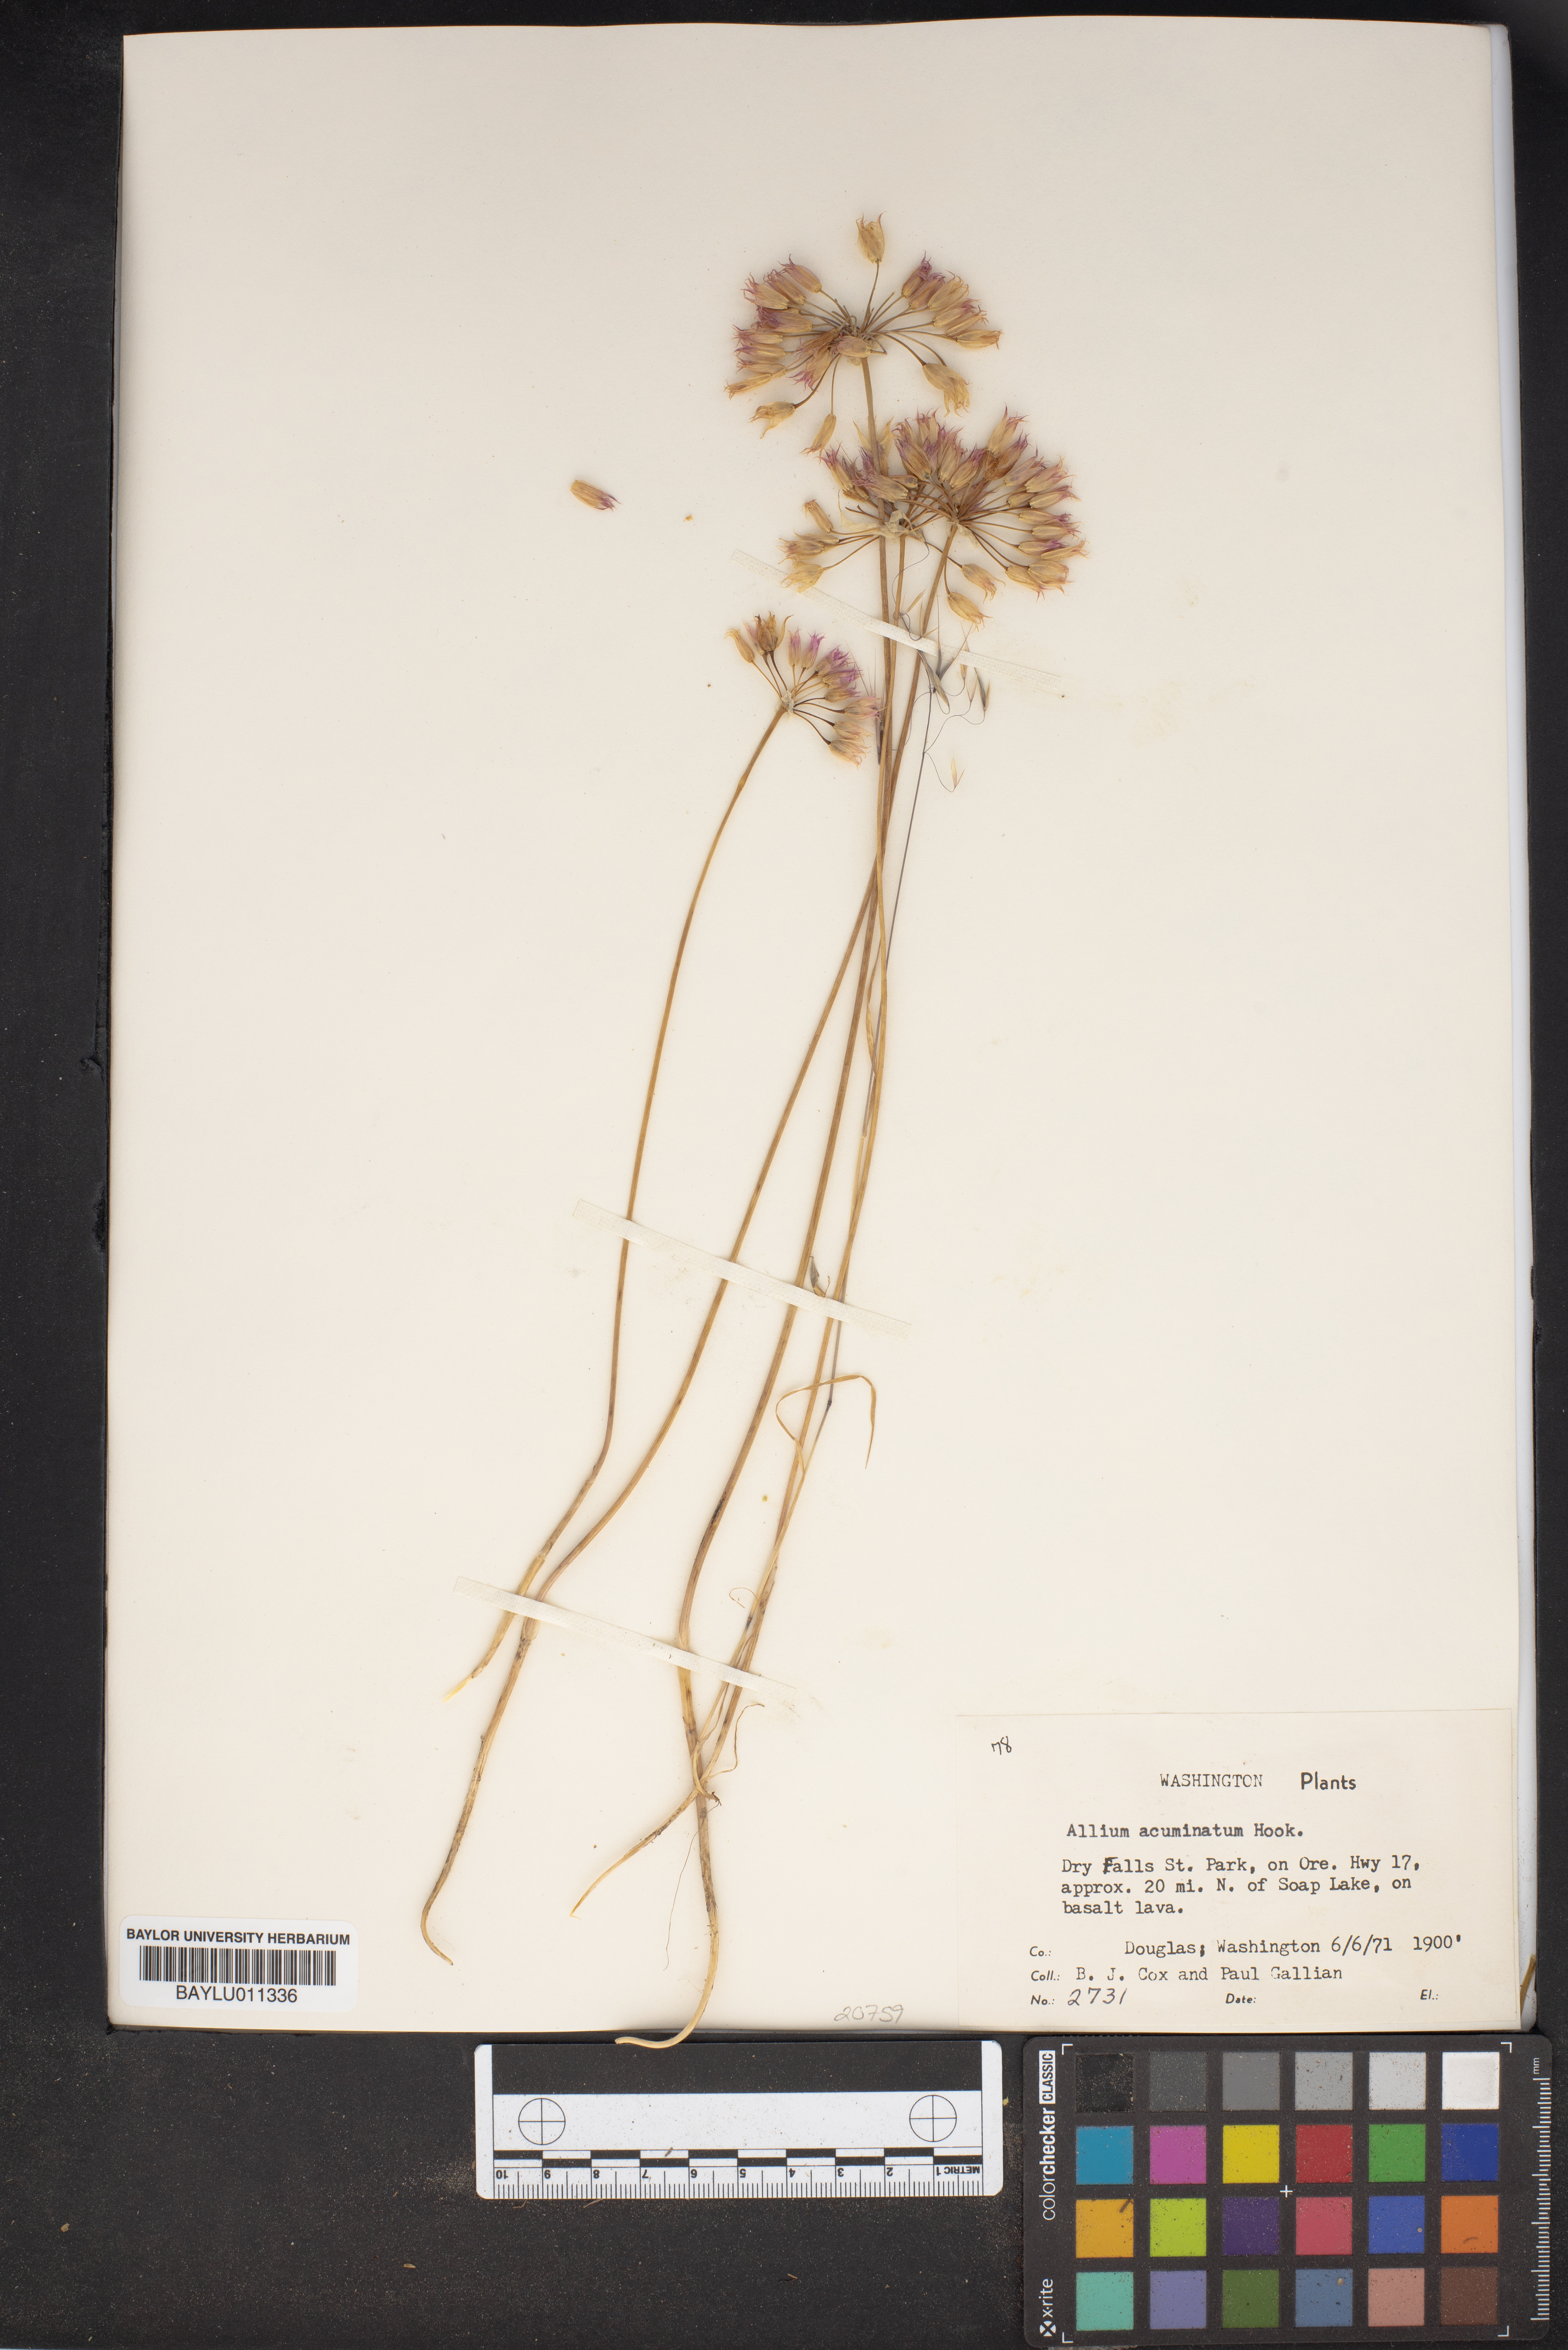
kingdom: Plantae
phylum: Tracheophyta
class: Liliopsida
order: Asparagales
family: Amaryllidaceae
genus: Allium
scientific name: Allium acuminatum
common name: Hooker's onion
